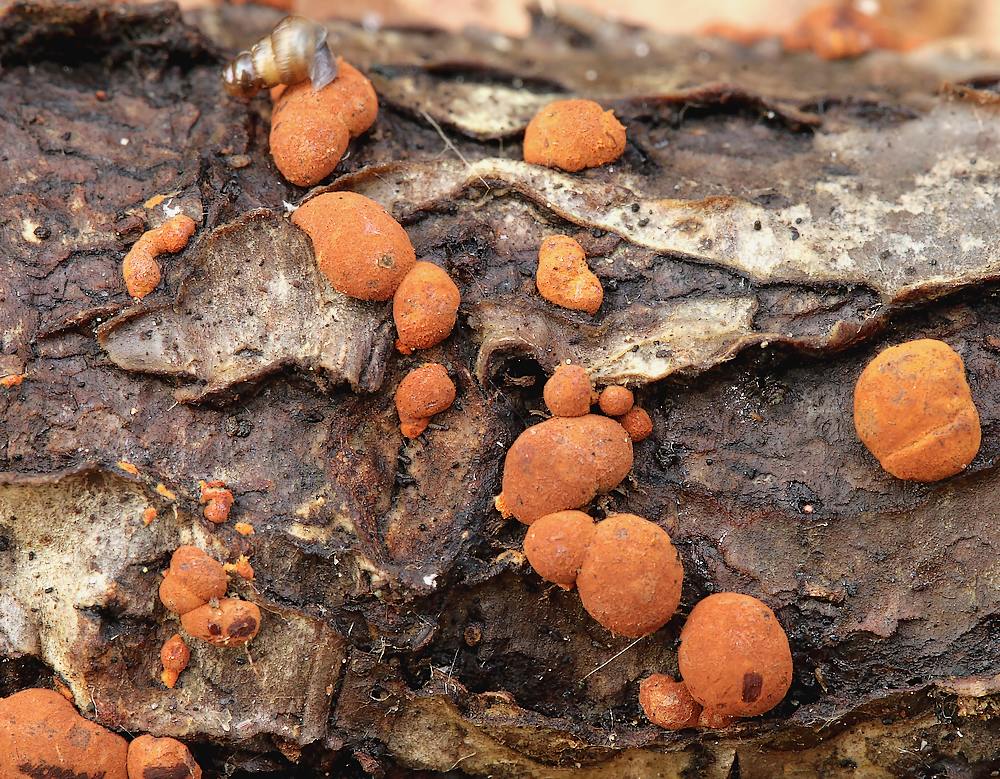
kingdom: Fungi
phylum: Ascomycota
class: Sordariomycetes
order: Xylariales
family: Hypoxylaceae
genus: Hypoxylon
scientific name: Hypoxylon howeanum
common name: halvkugleformet kulbær
